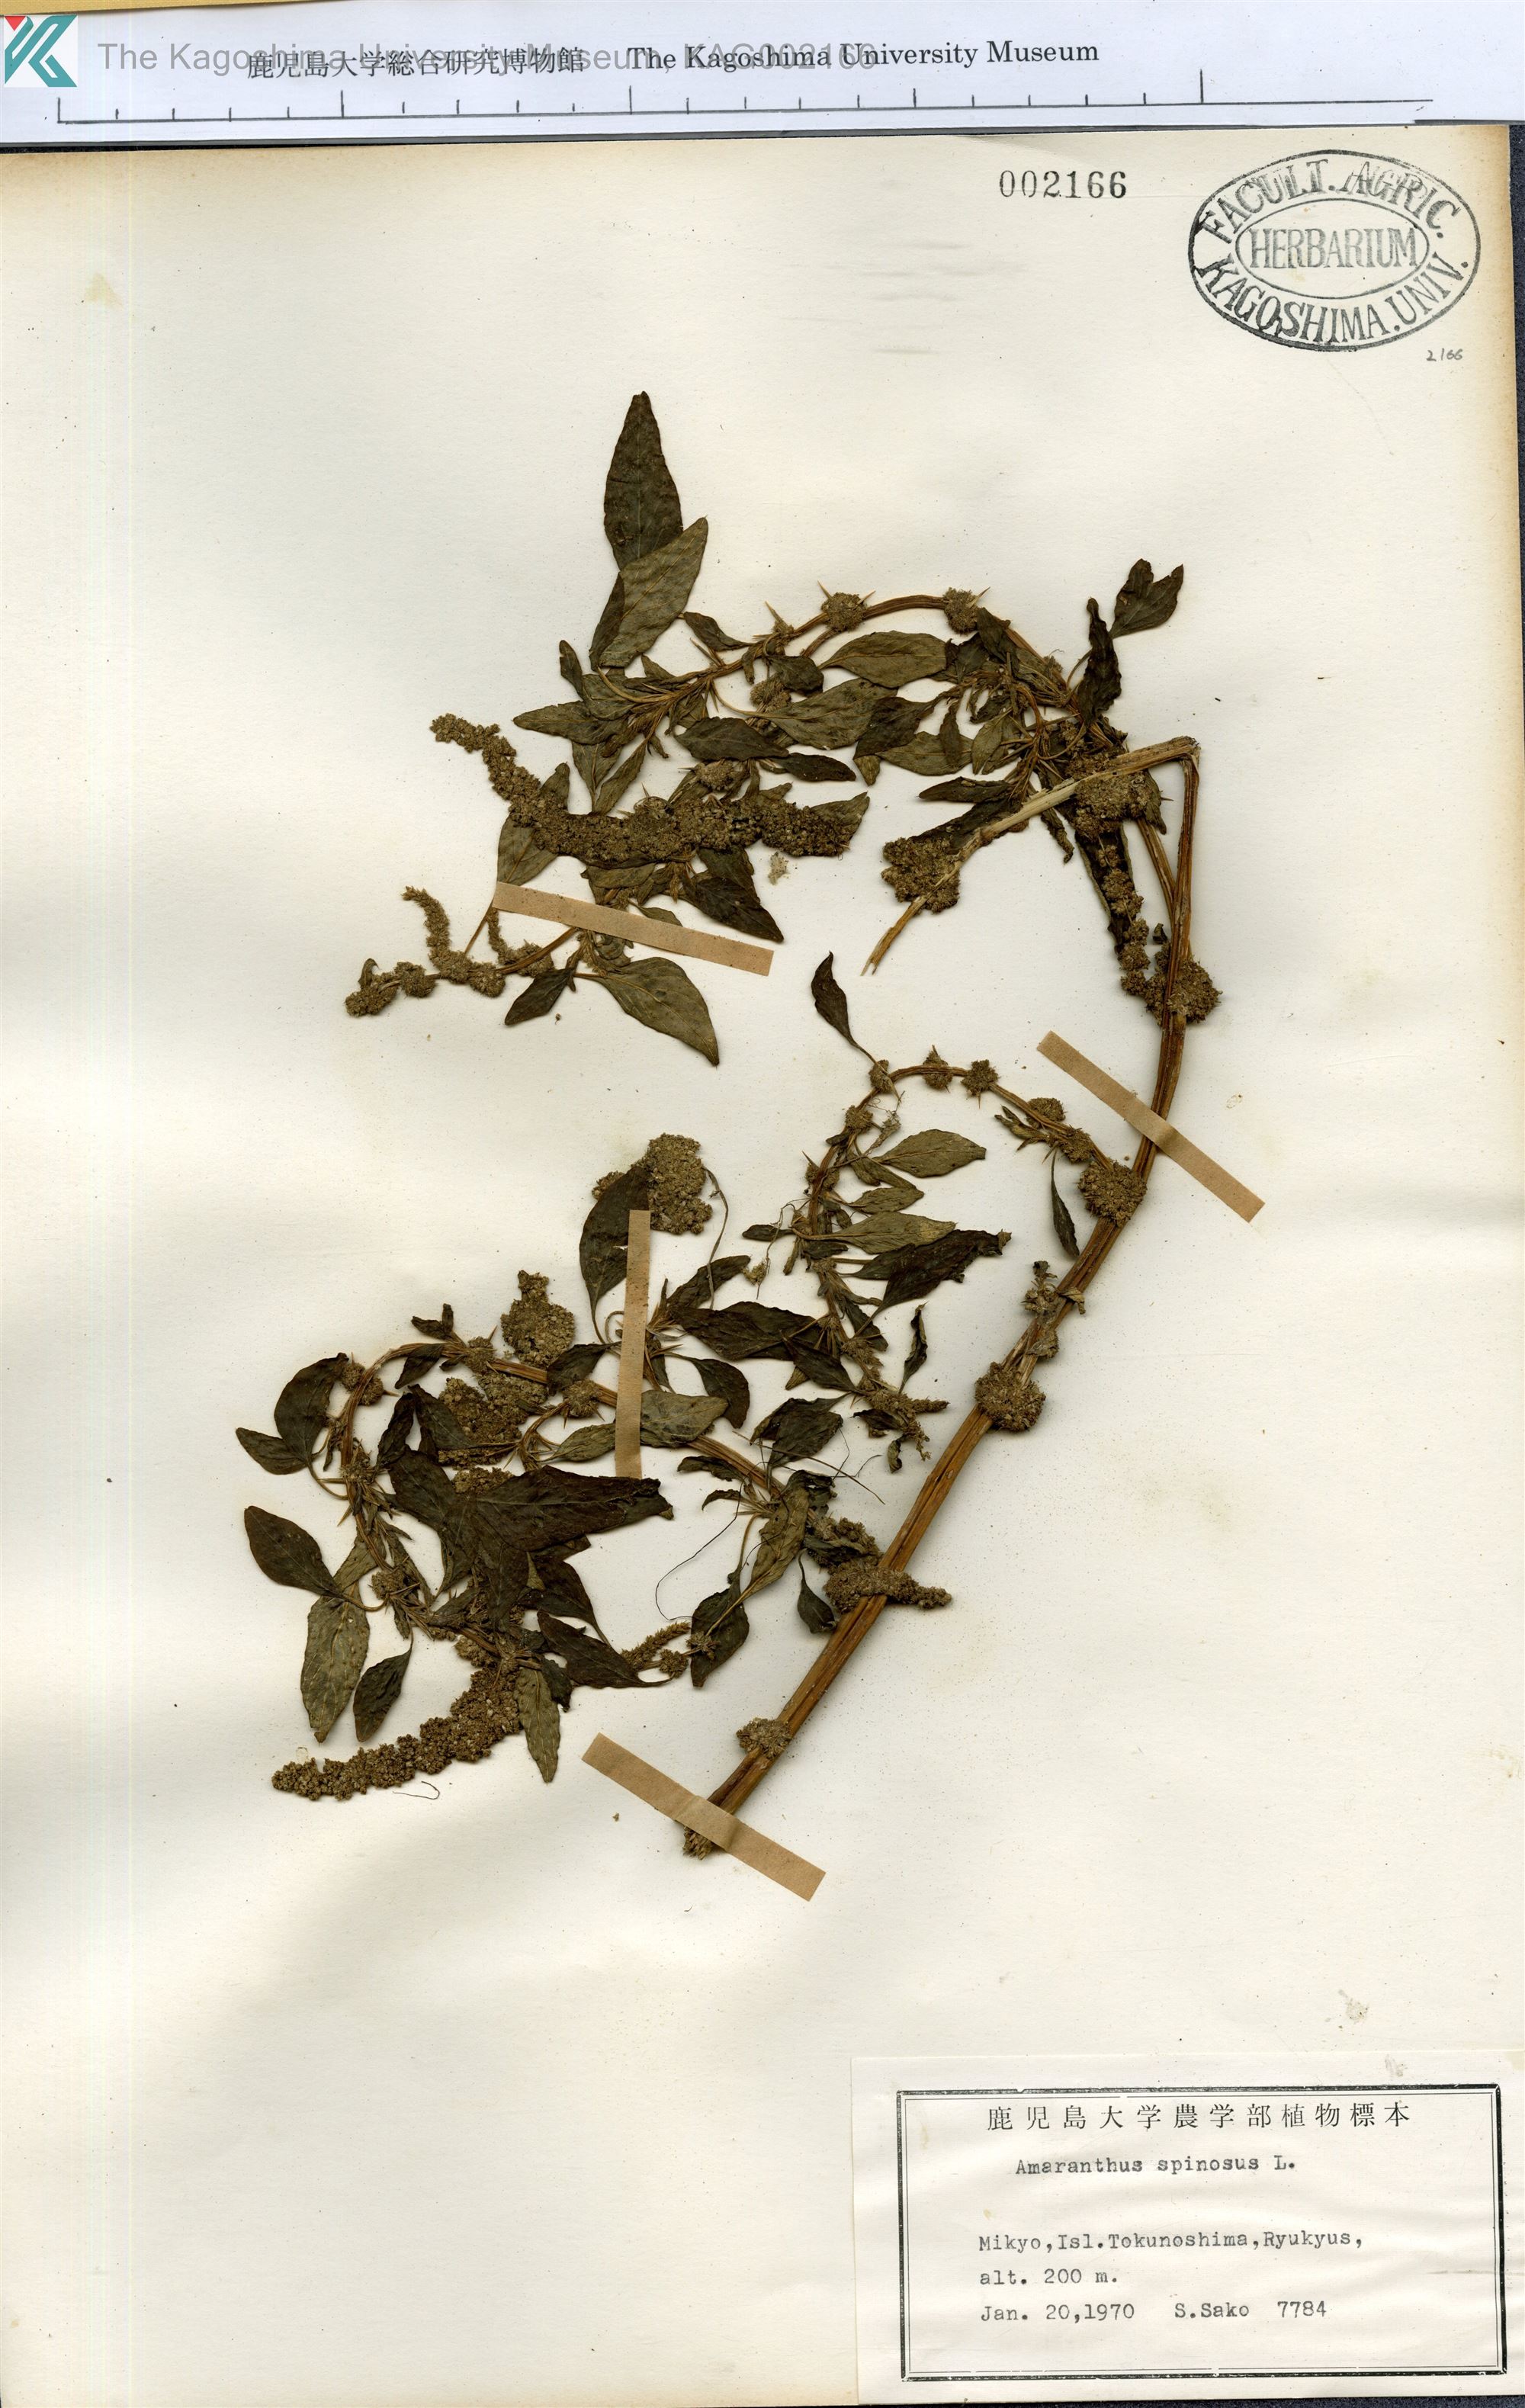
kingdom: Plantae
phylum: Tracheophyta
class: Magnoliopsida
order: Caryophyllales
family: Amaranthaceae
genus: Amaranthus
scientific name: Amaranthus spinosus
